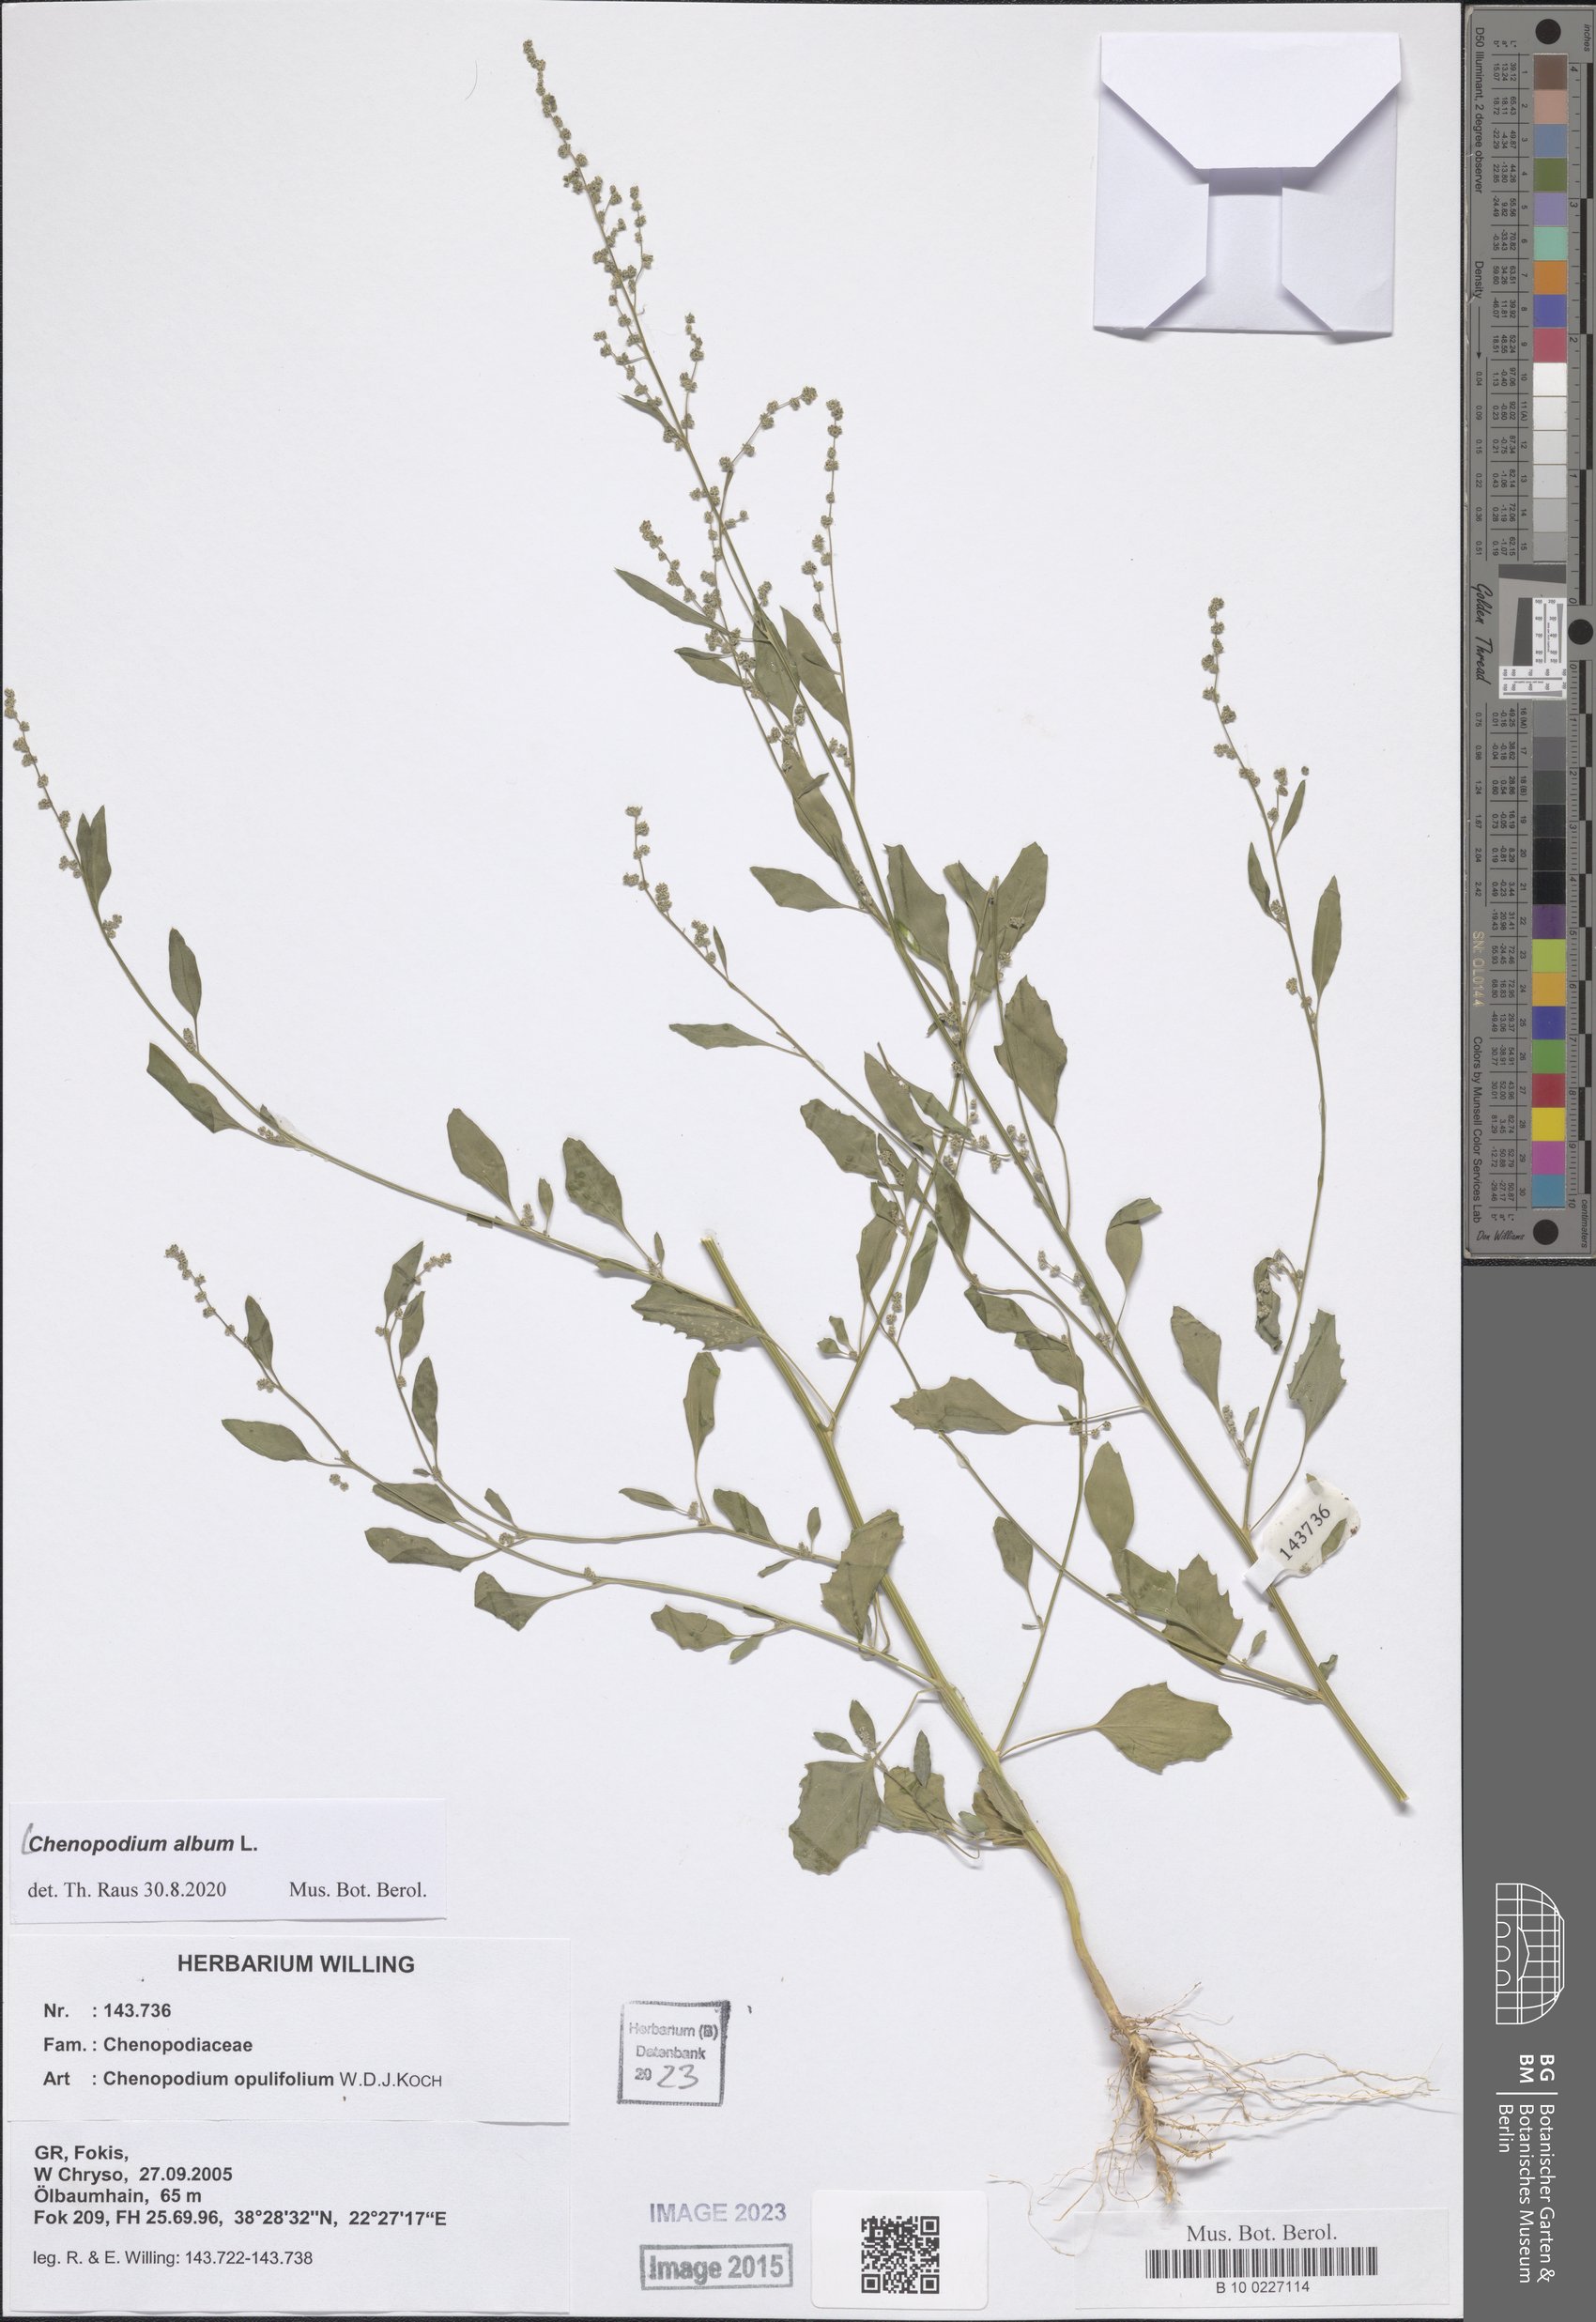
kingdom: Plantae
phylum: Tracheophyta
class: Magnoliopsida
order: Caryophyllales
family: Amaranthaceae
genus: Chenopodium
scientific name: Chenopodium album
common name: Fat-hen
